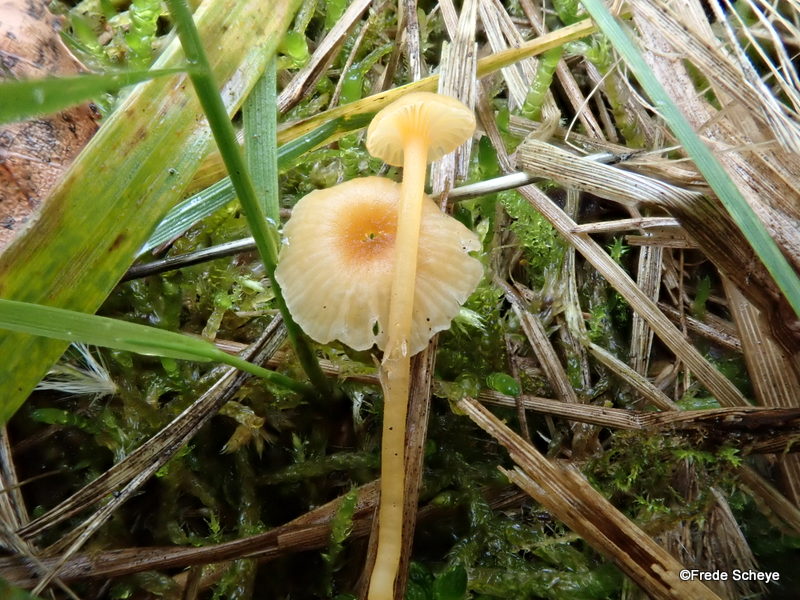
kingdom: Fungi
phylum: Basidiomycota
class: Agaricomycetes
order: Hymenochaetales
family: Rickenellaceae
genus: Rickenella
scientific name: Rickenella fibula
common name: orange mosnavlehat
